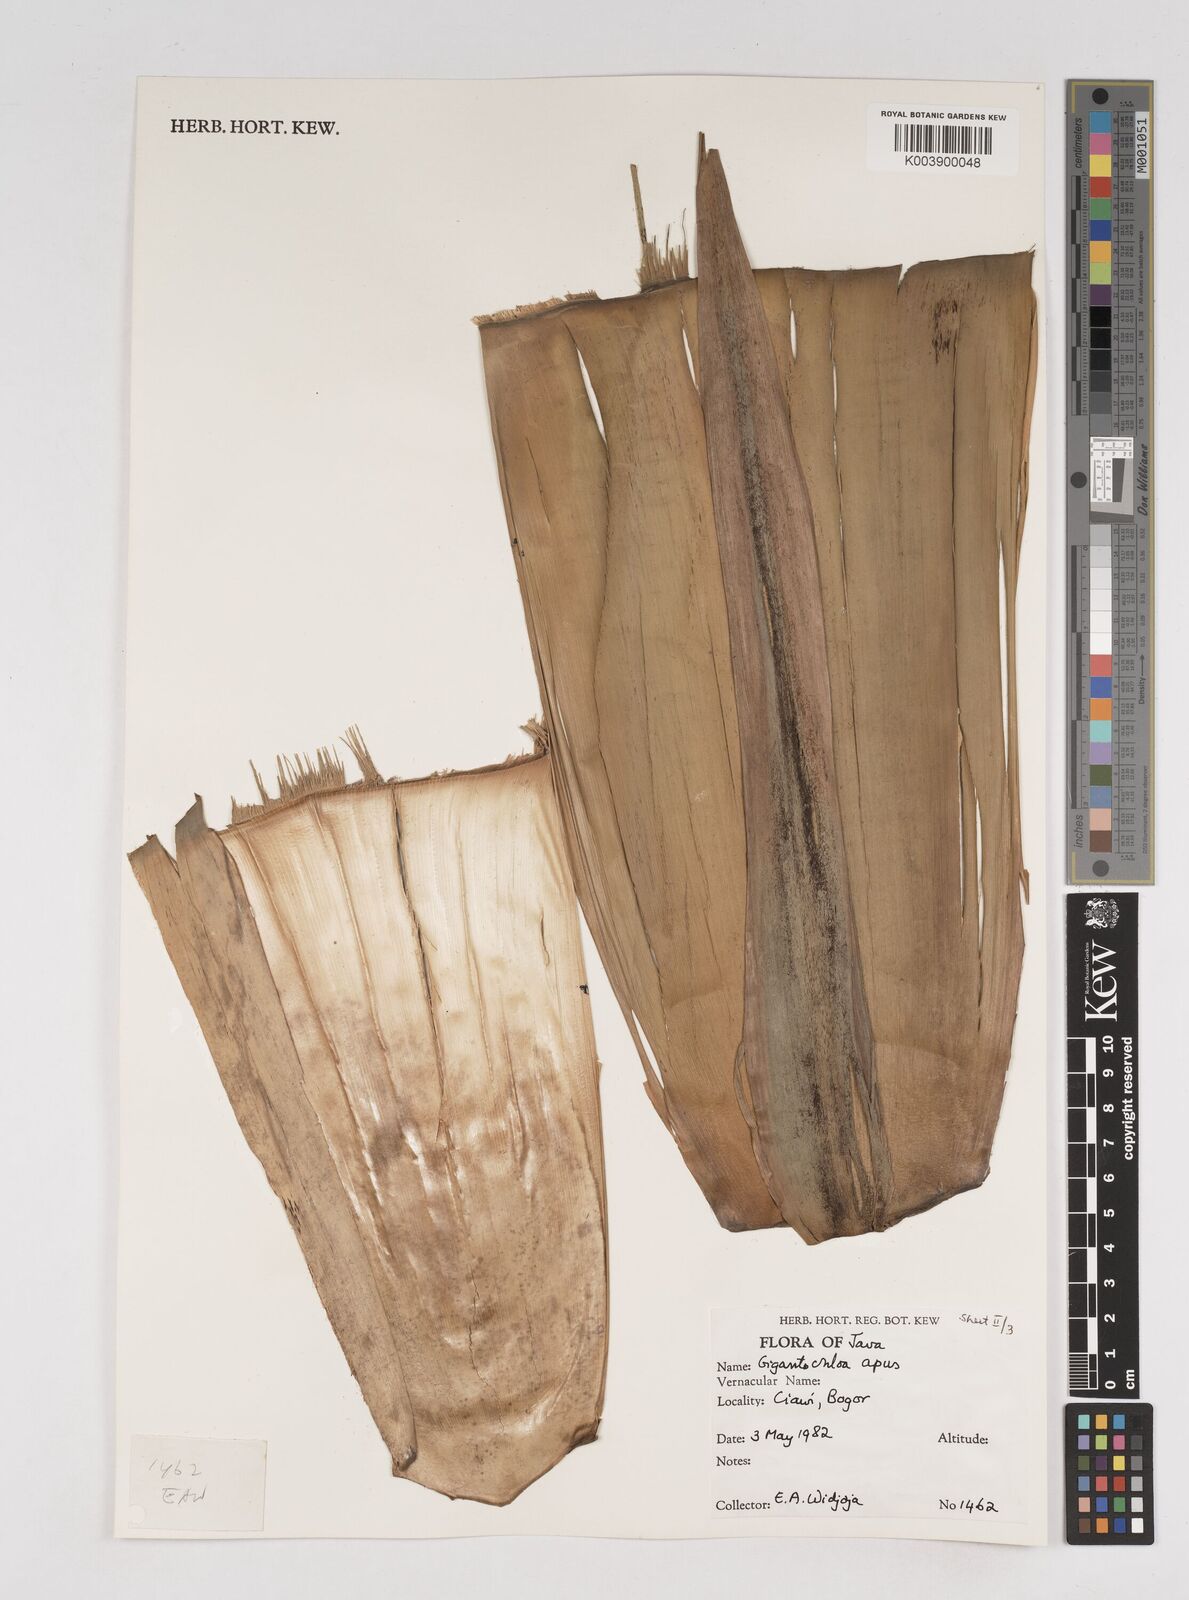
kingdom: Plantae
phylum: Tracheophyta
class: Liliopsida
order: Poales
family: Poaceae
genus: Gigantochloa
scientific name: Gigantochloa apus
